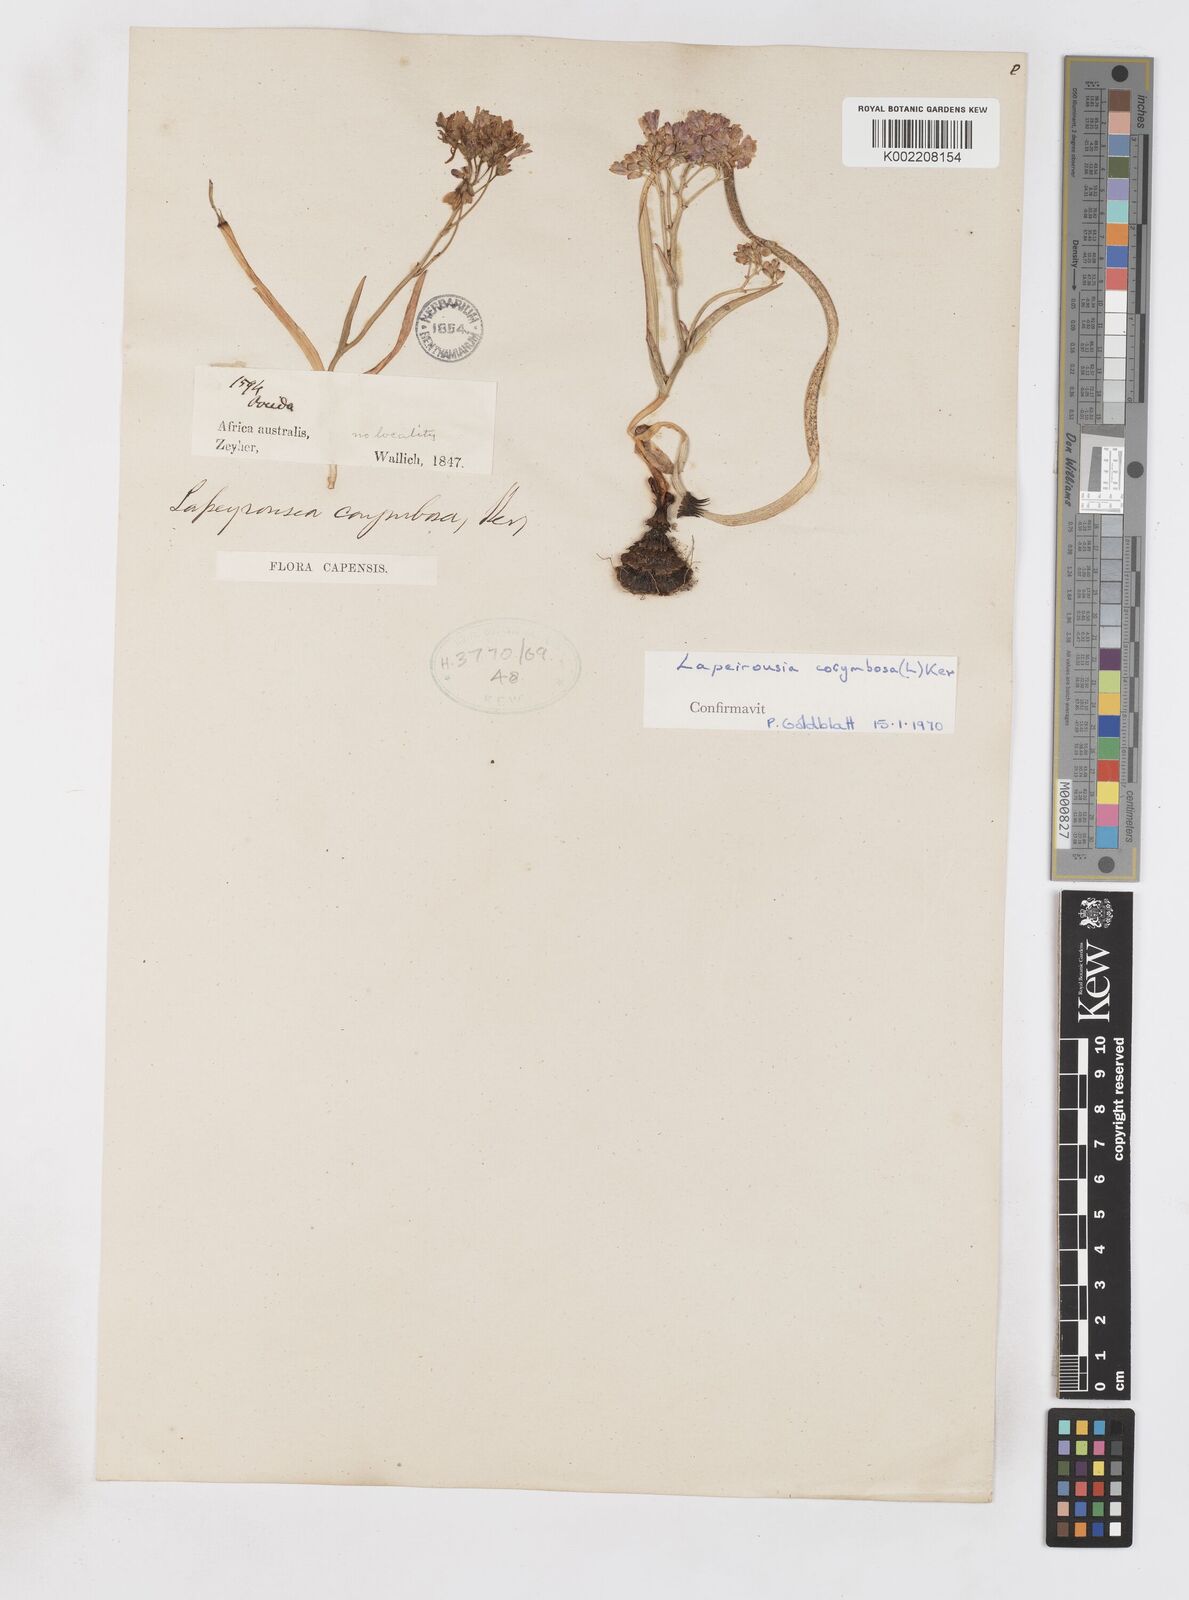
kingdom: Plantae
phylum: Tracheophyta
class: Liliopsida
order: Asparagales
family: Iridaceae
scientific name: Iridaceae
